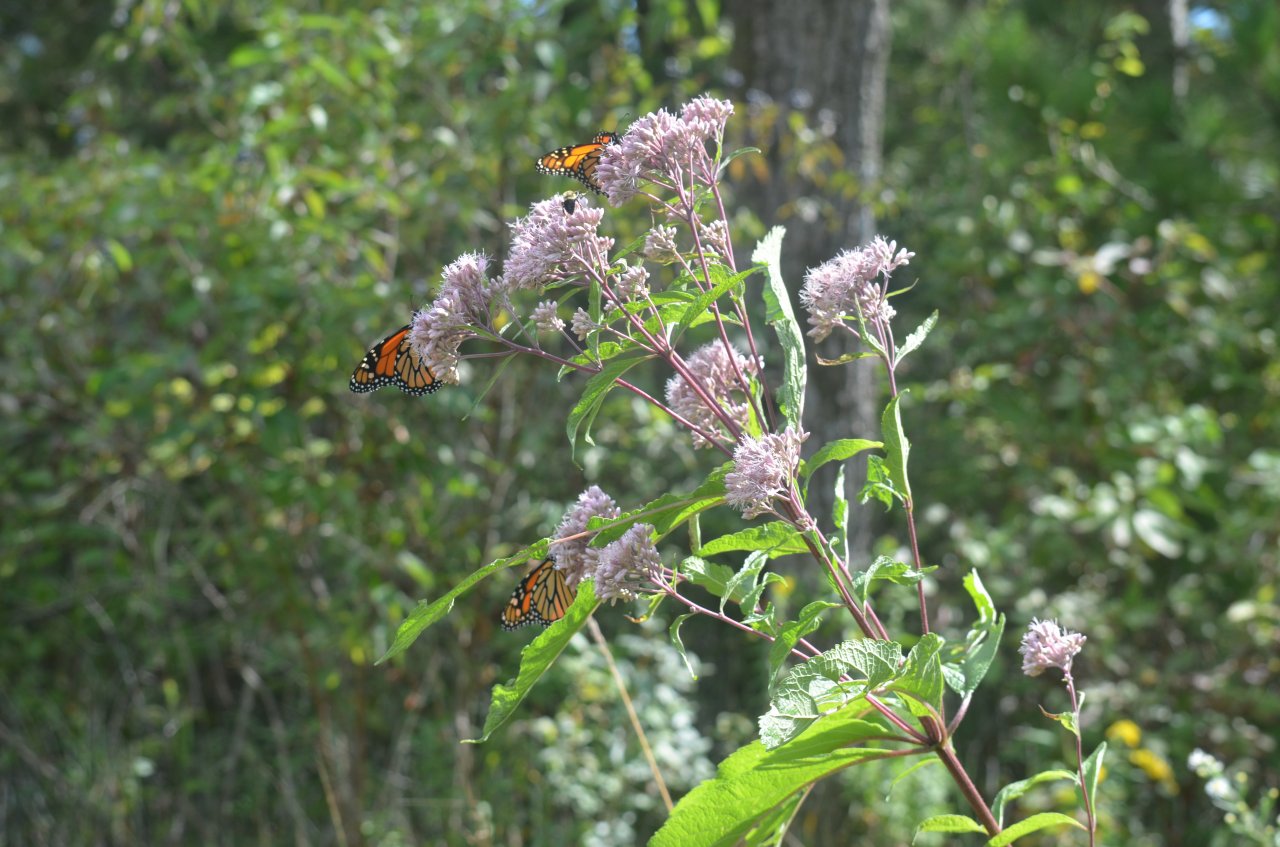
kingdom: Animalia
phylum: Arthropoda
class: Insecta
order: Lepidoptera
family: Nymphalidae
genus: Danaus
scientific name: Danaus plexippus
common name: Monarch
